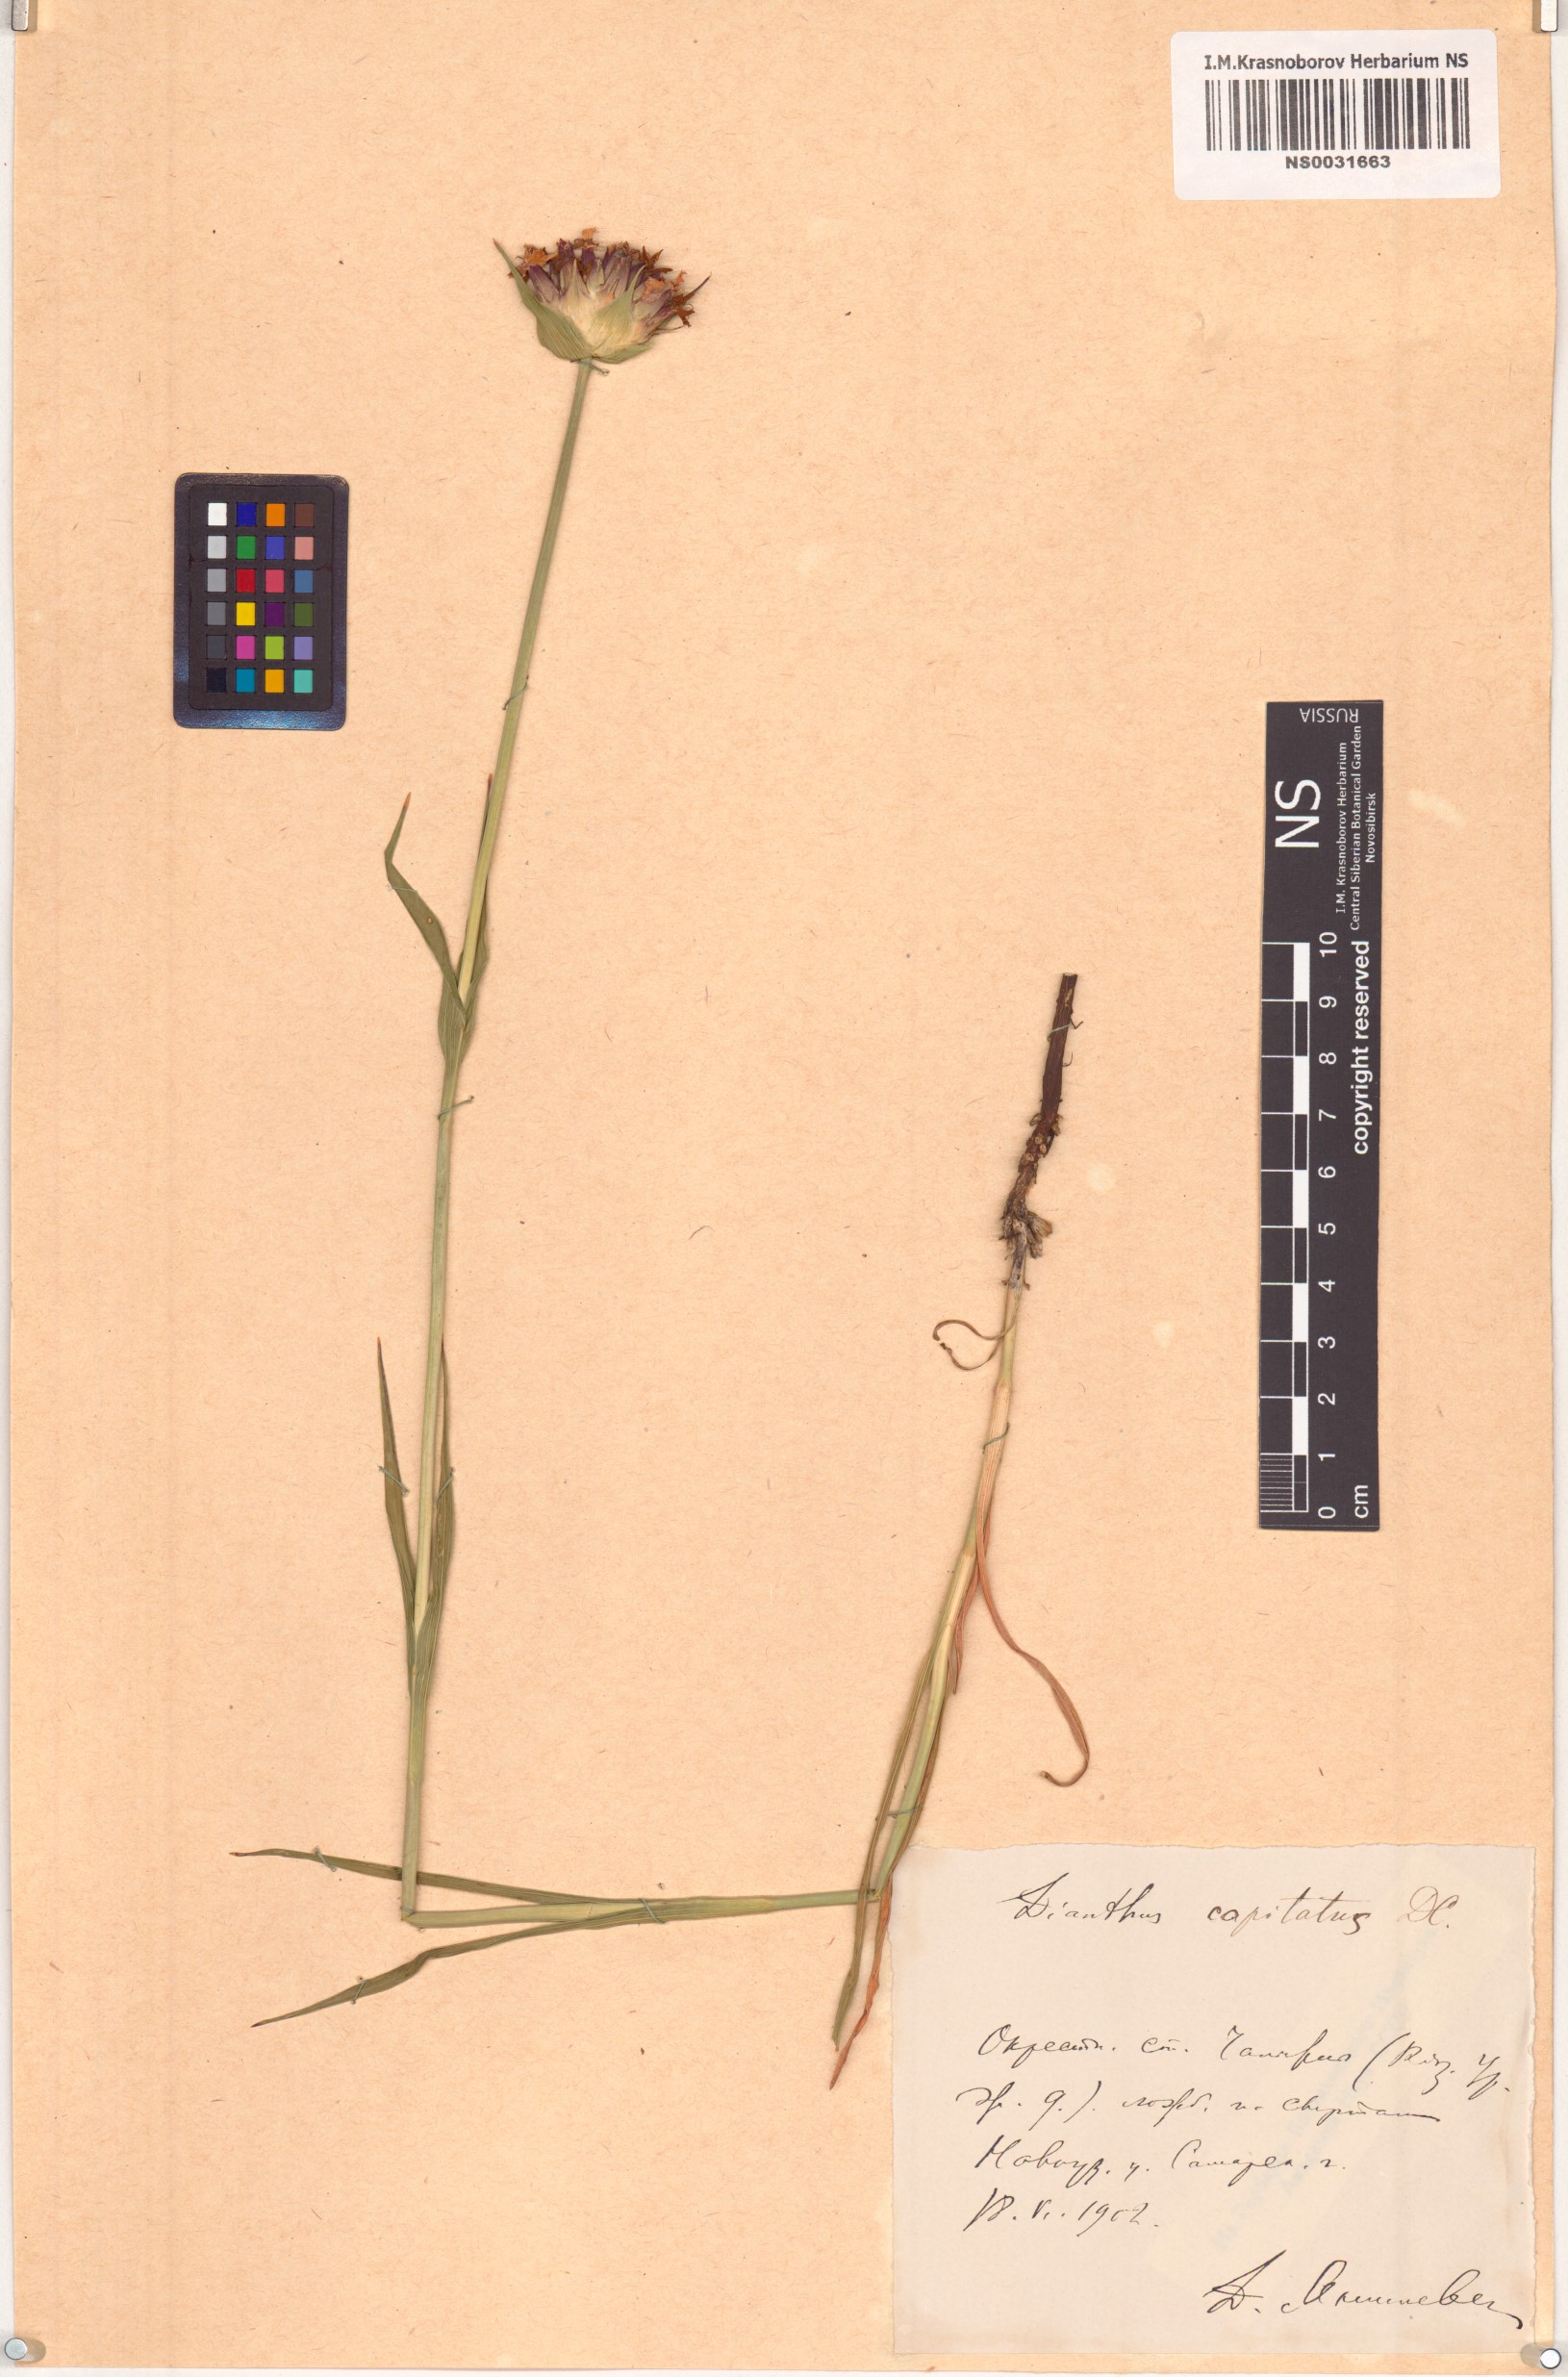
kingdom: Plantae
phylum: Tracheophyta
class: Magnoliopsida
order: Caryophyllales
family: Caryophyllaceae
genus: Dianthus
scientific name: Dianthus capitatus
